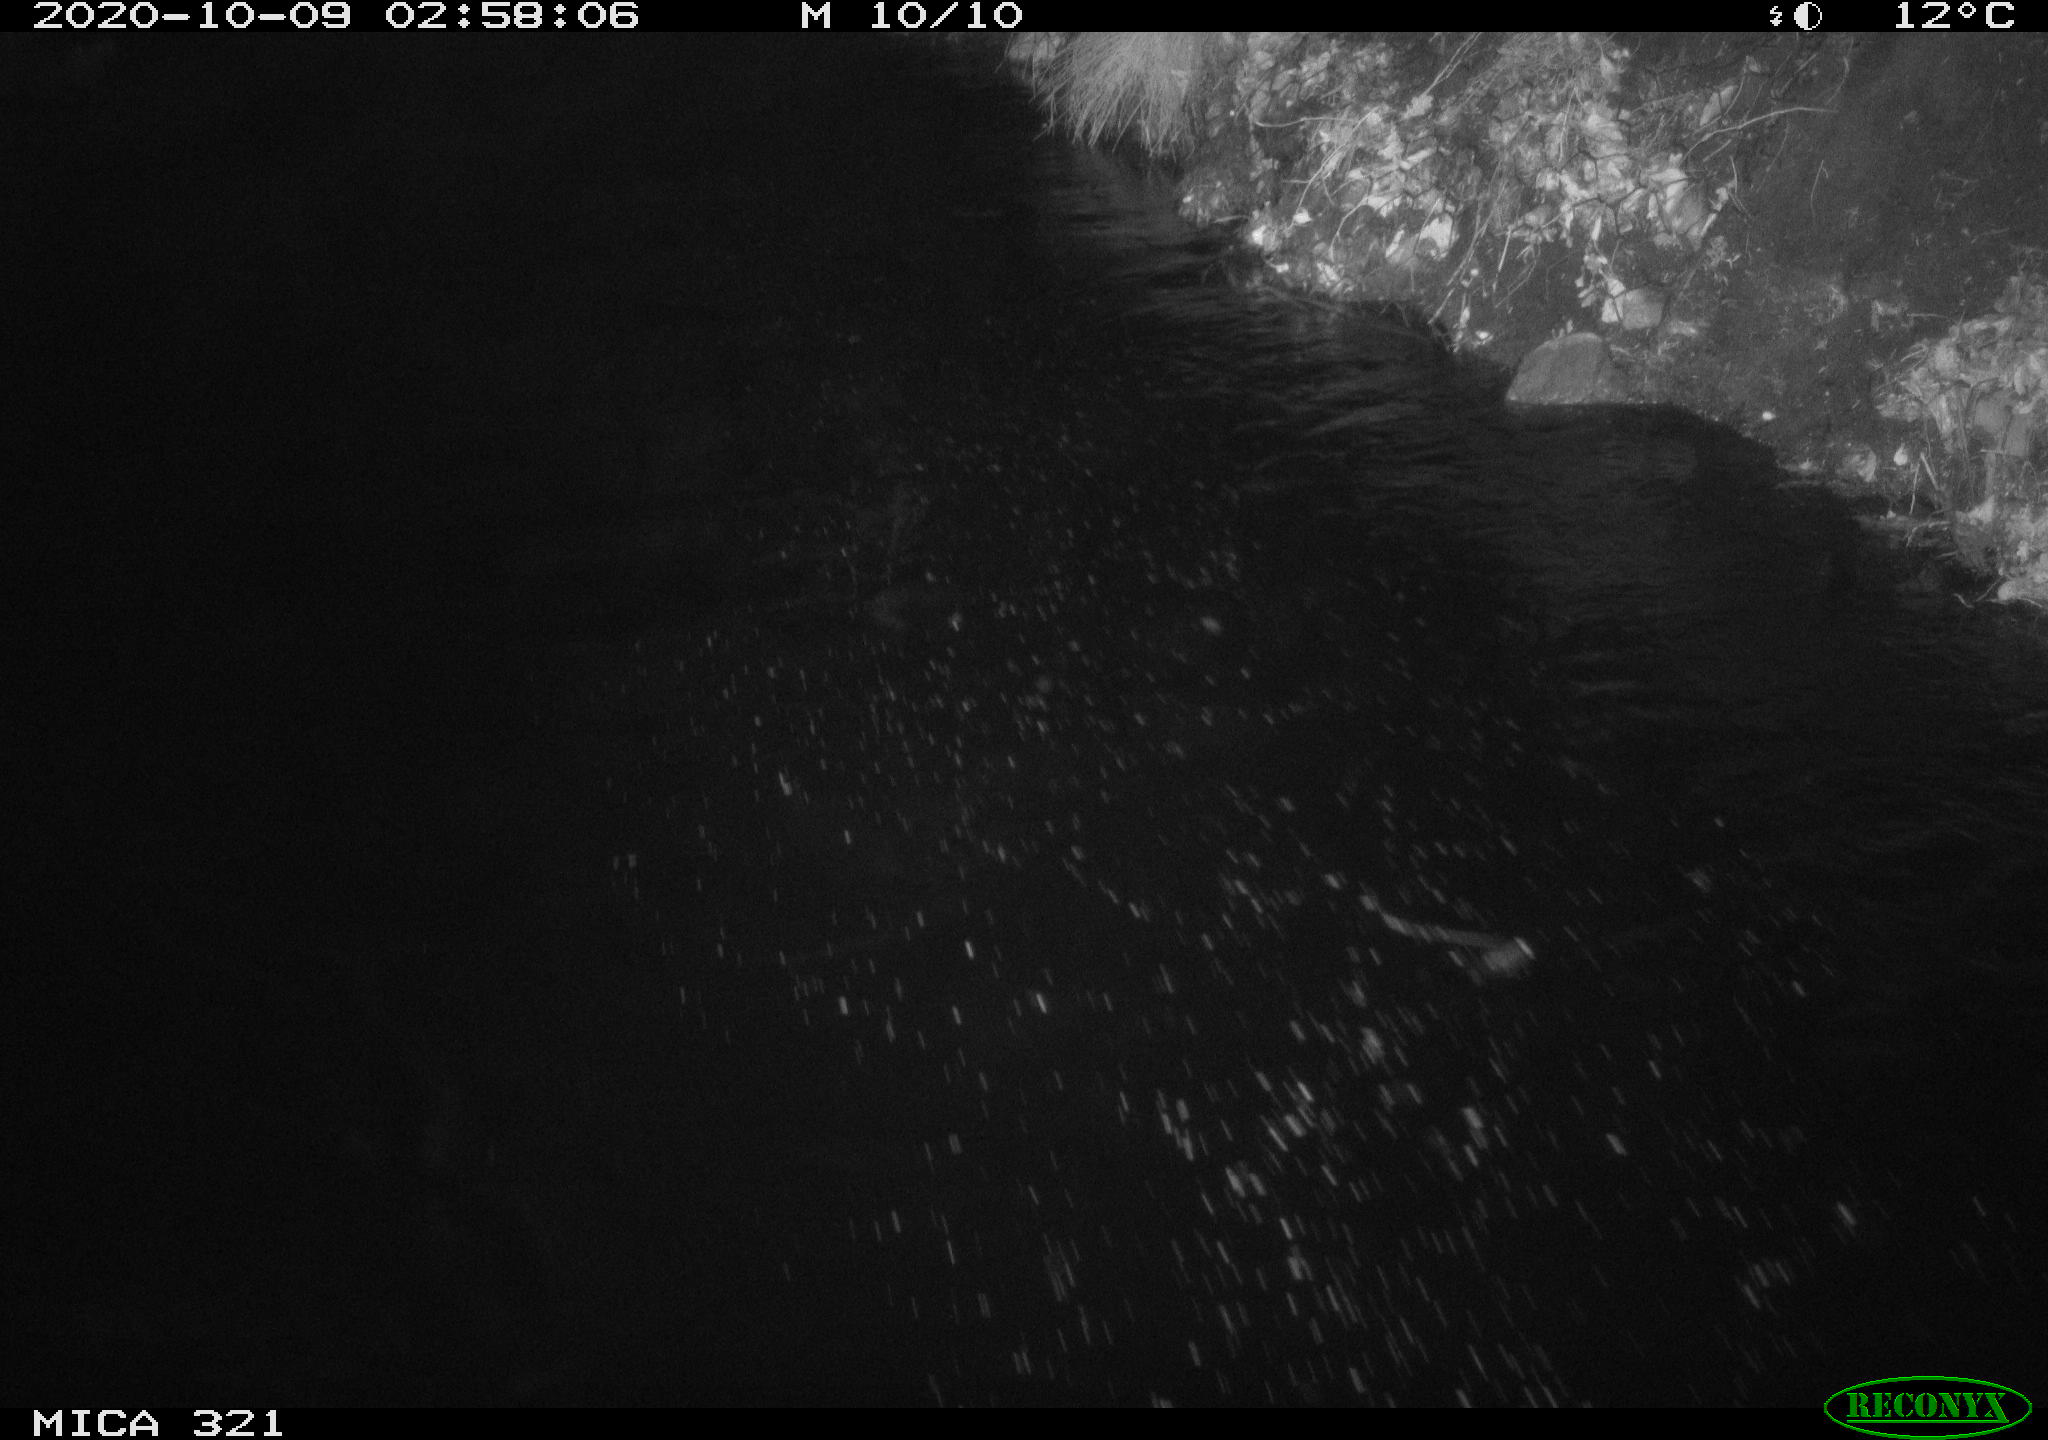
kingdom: Animalia
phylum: Chordata
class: Mammalia
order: Rodentia
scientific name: Rodentia
